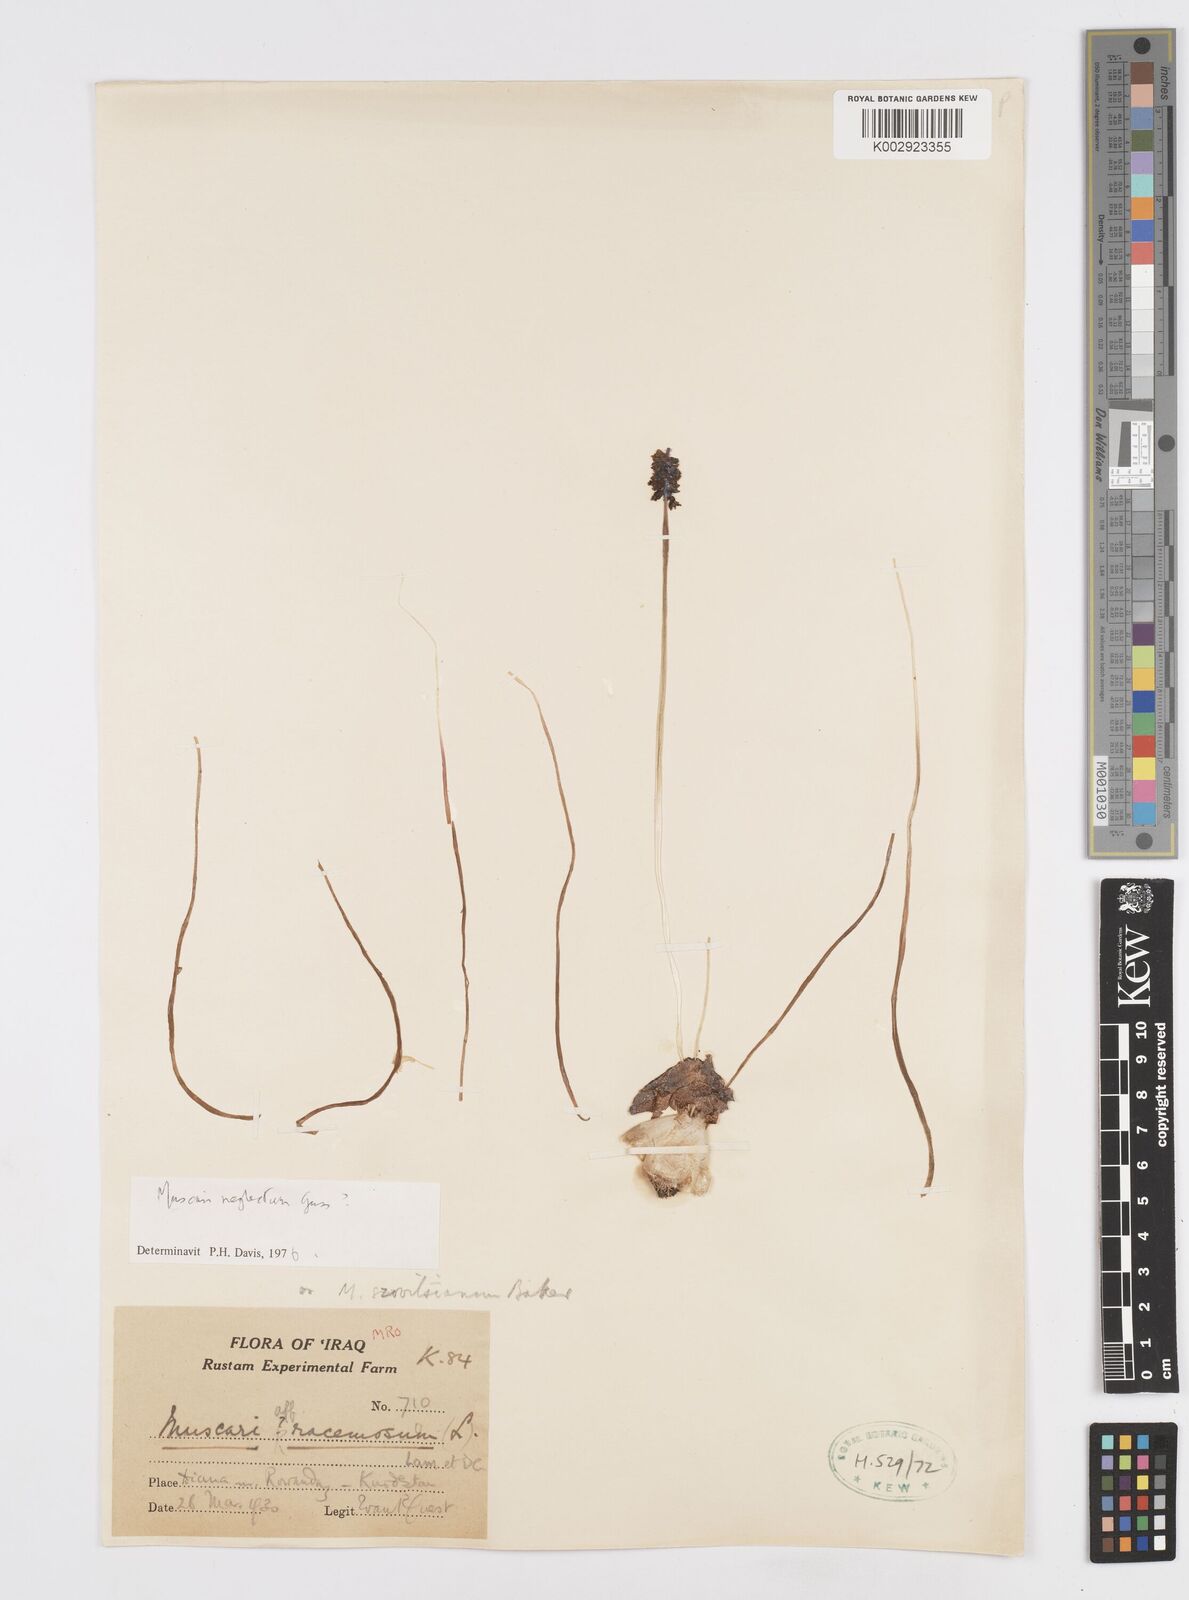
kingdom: Plantae
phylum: Tracheophyta
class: Liliopsida
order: Asparagales
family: Asparagaceae
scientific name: Asparagaceae
